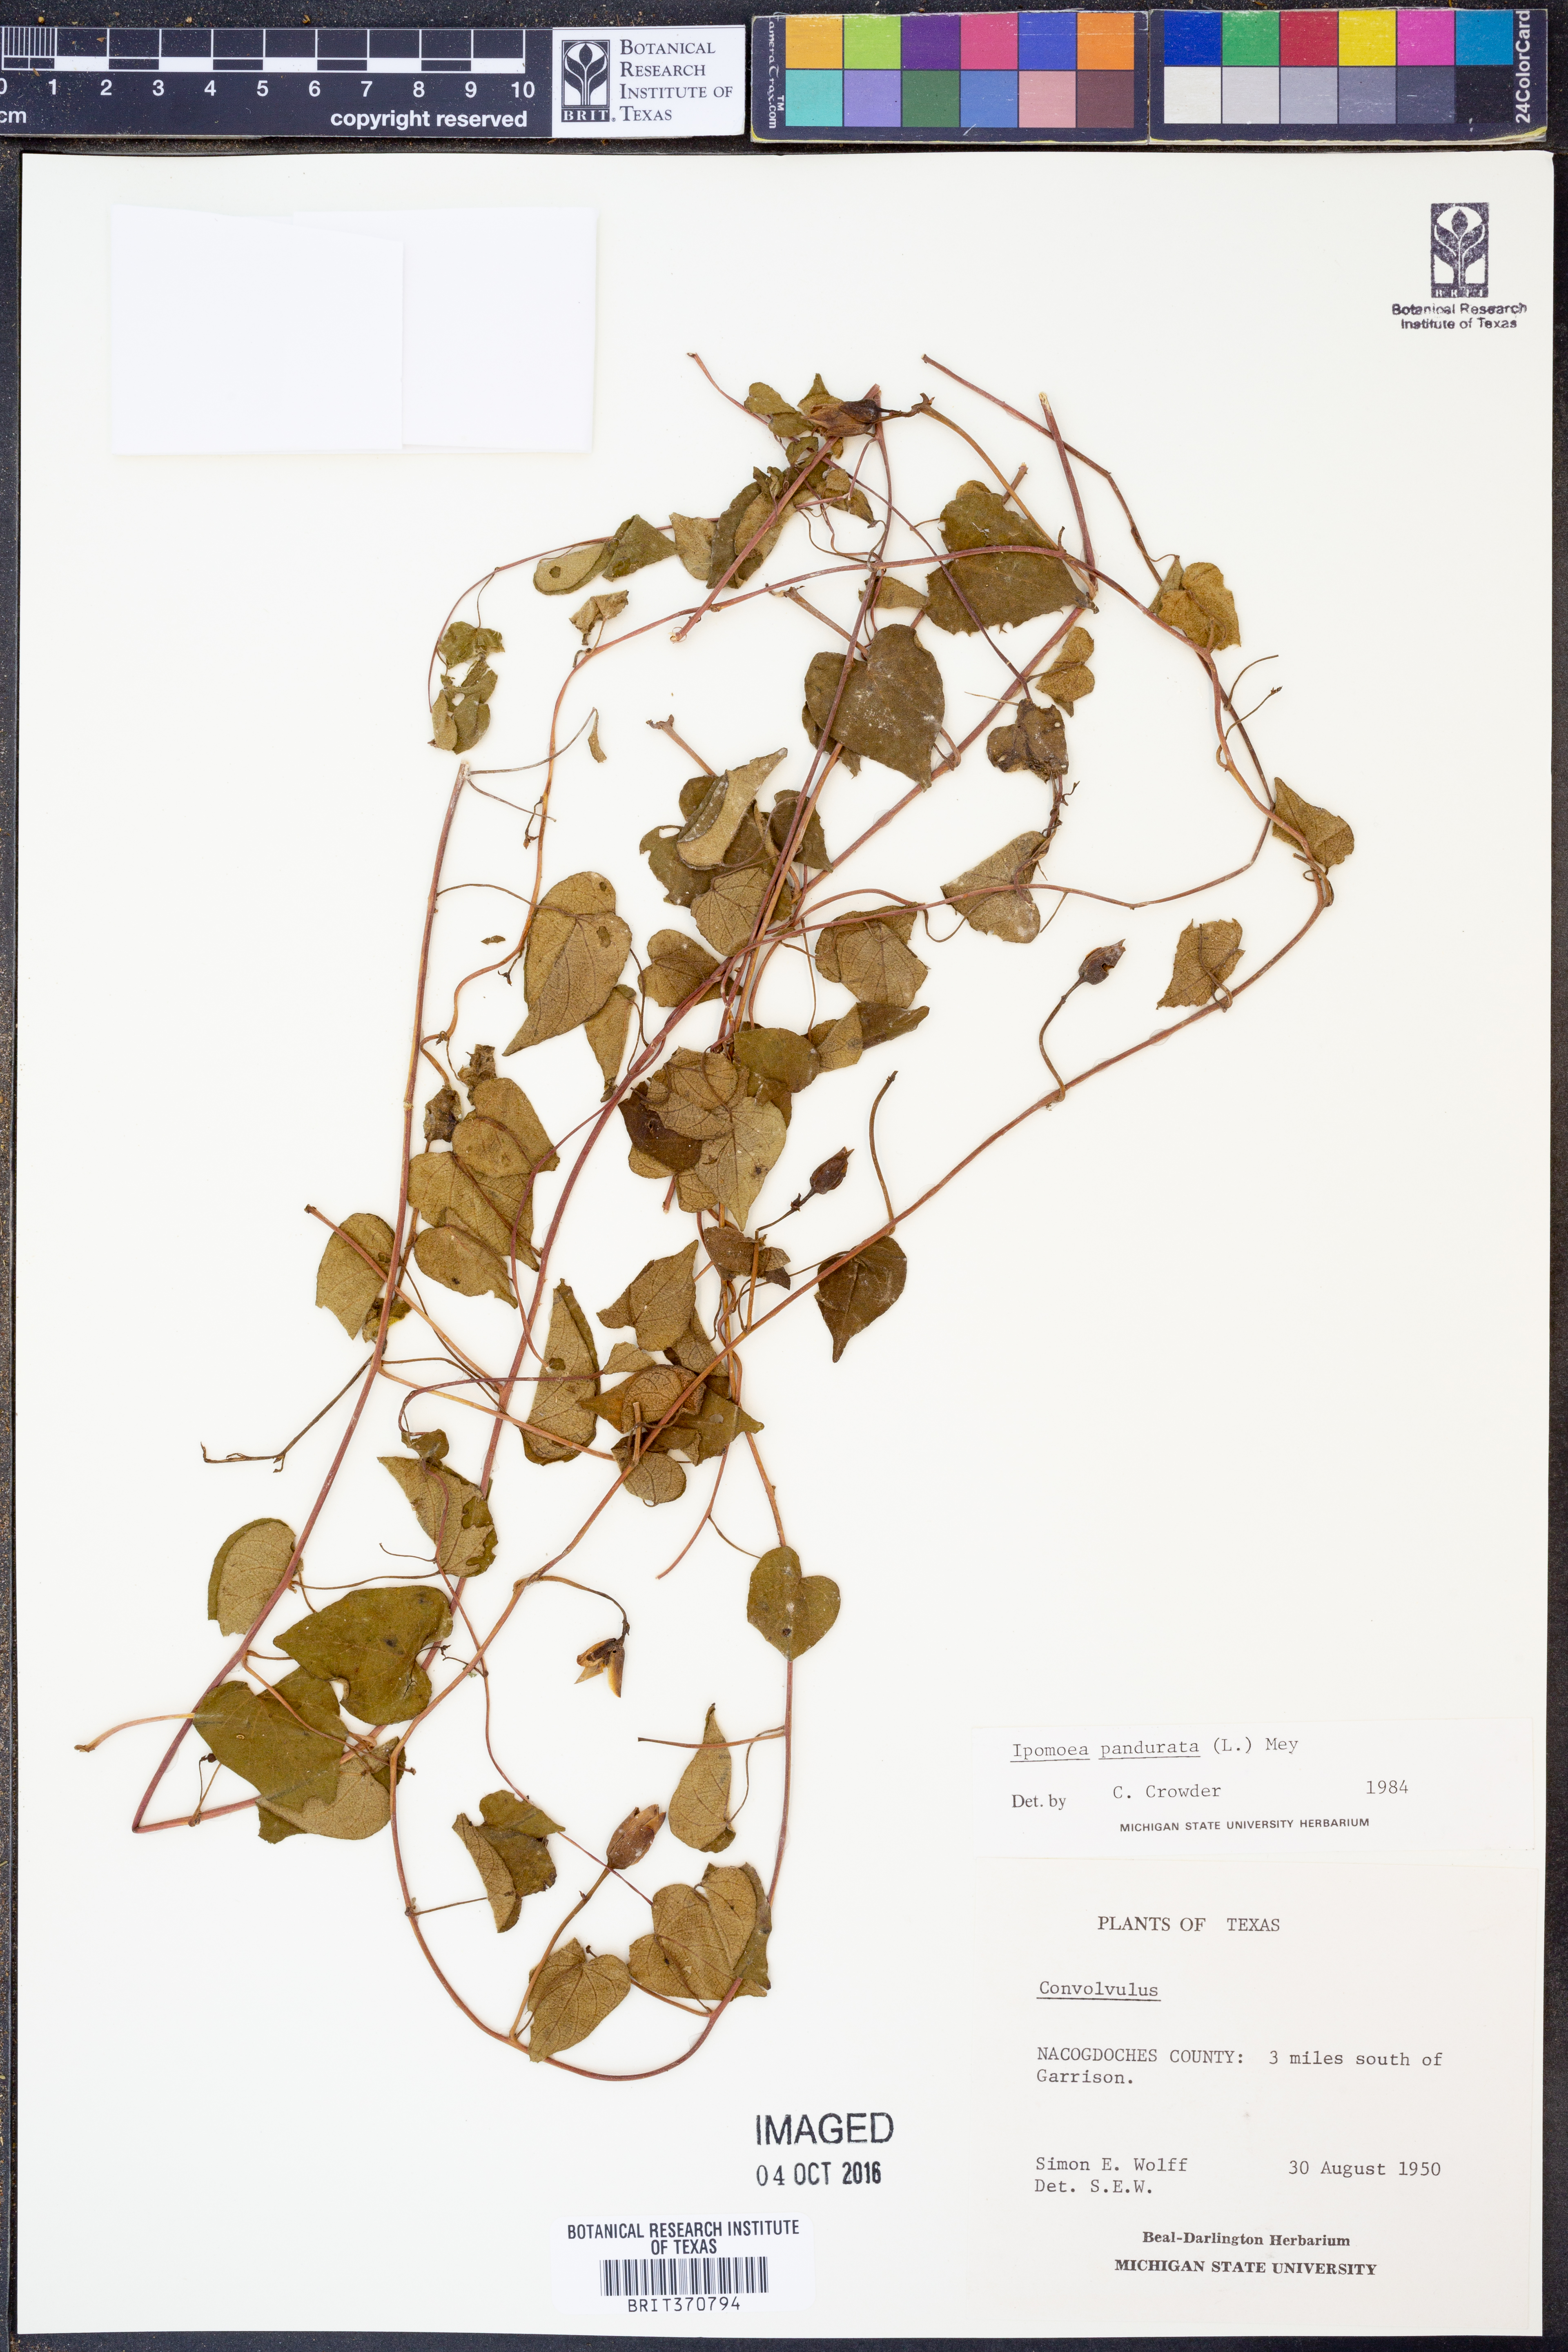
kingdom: Plantae
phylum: Tracheophyta
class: Magnoliopsida
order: Solanales
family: Convolvulaceae
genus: Ipomoea
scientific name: Ipomoea pandurata
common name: Man-of-the-earth
